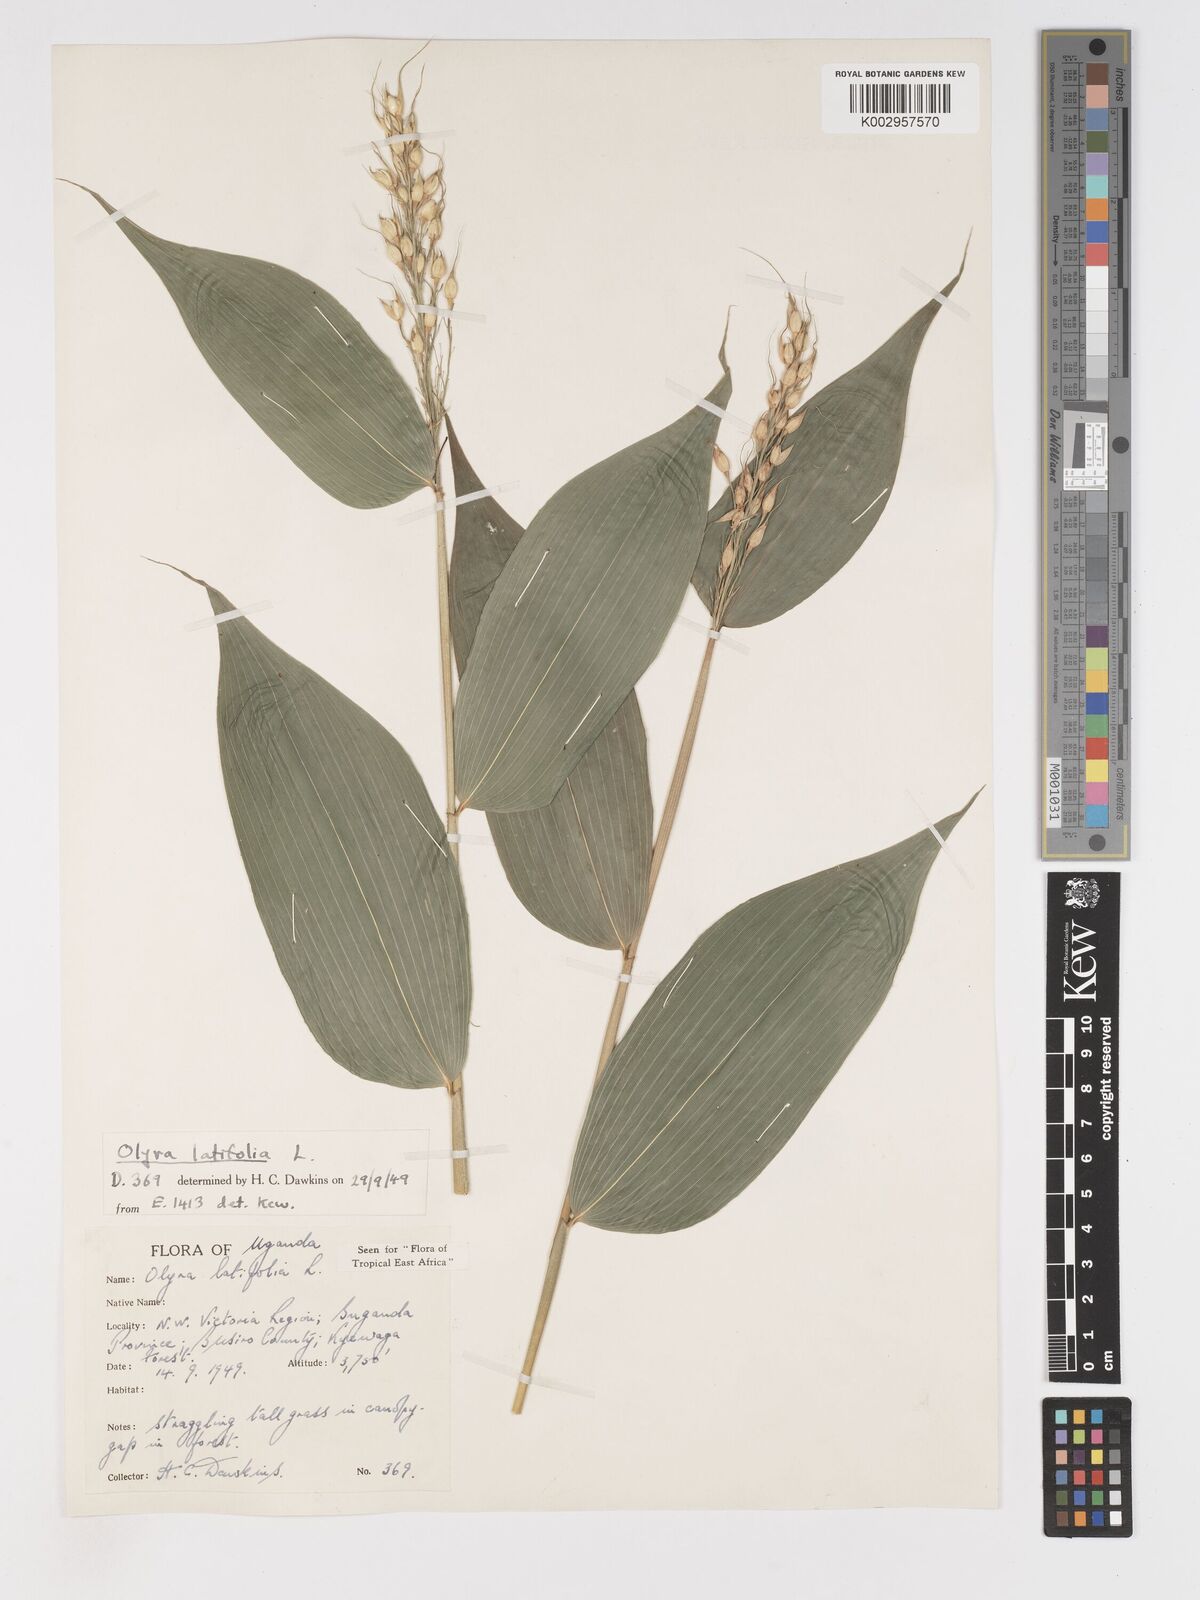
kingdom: Plantae
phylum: Tracheophyta
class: Liliopsida
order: Poales
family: Poaceae
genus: Olyra
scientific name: Olyra latifolia
